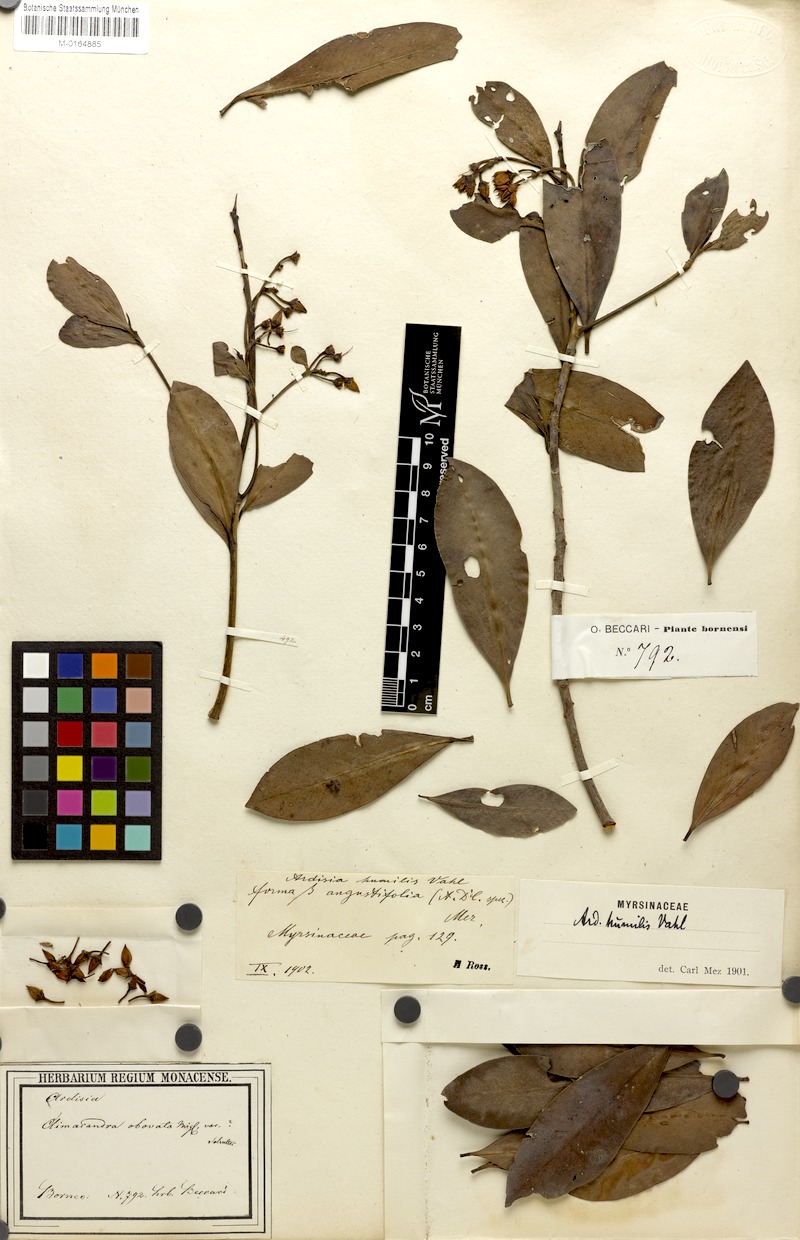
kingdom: Plantae
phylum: Tracheophyta
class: Magnoliopsida
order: Ericales
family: Primulaceae
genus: Ardisia
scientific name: Ardisia humilis
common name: Low shoebutton
